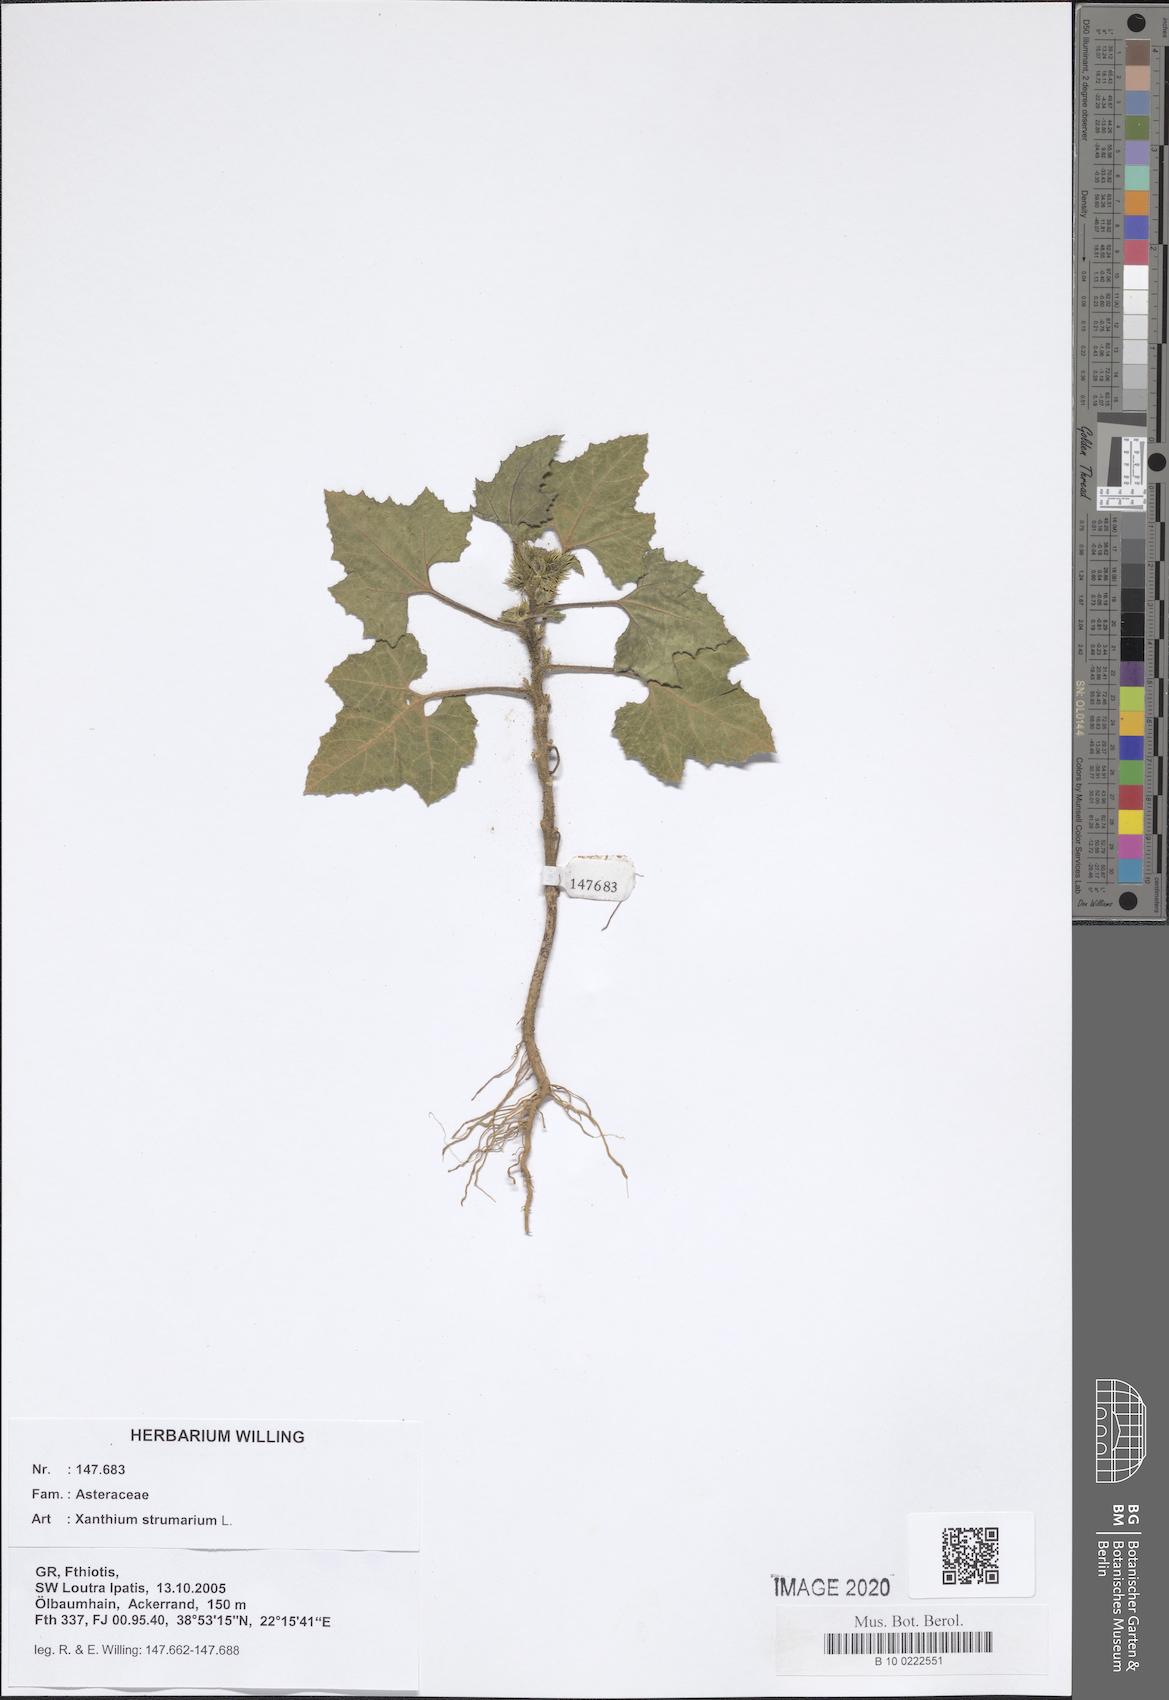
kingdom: Plantae
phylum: Tracheophyta
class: Magnoliopsida
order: Asterales
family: Asteraceae
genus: Xanthium
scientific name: Xanthium strumarium
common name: Rough cocklebur
